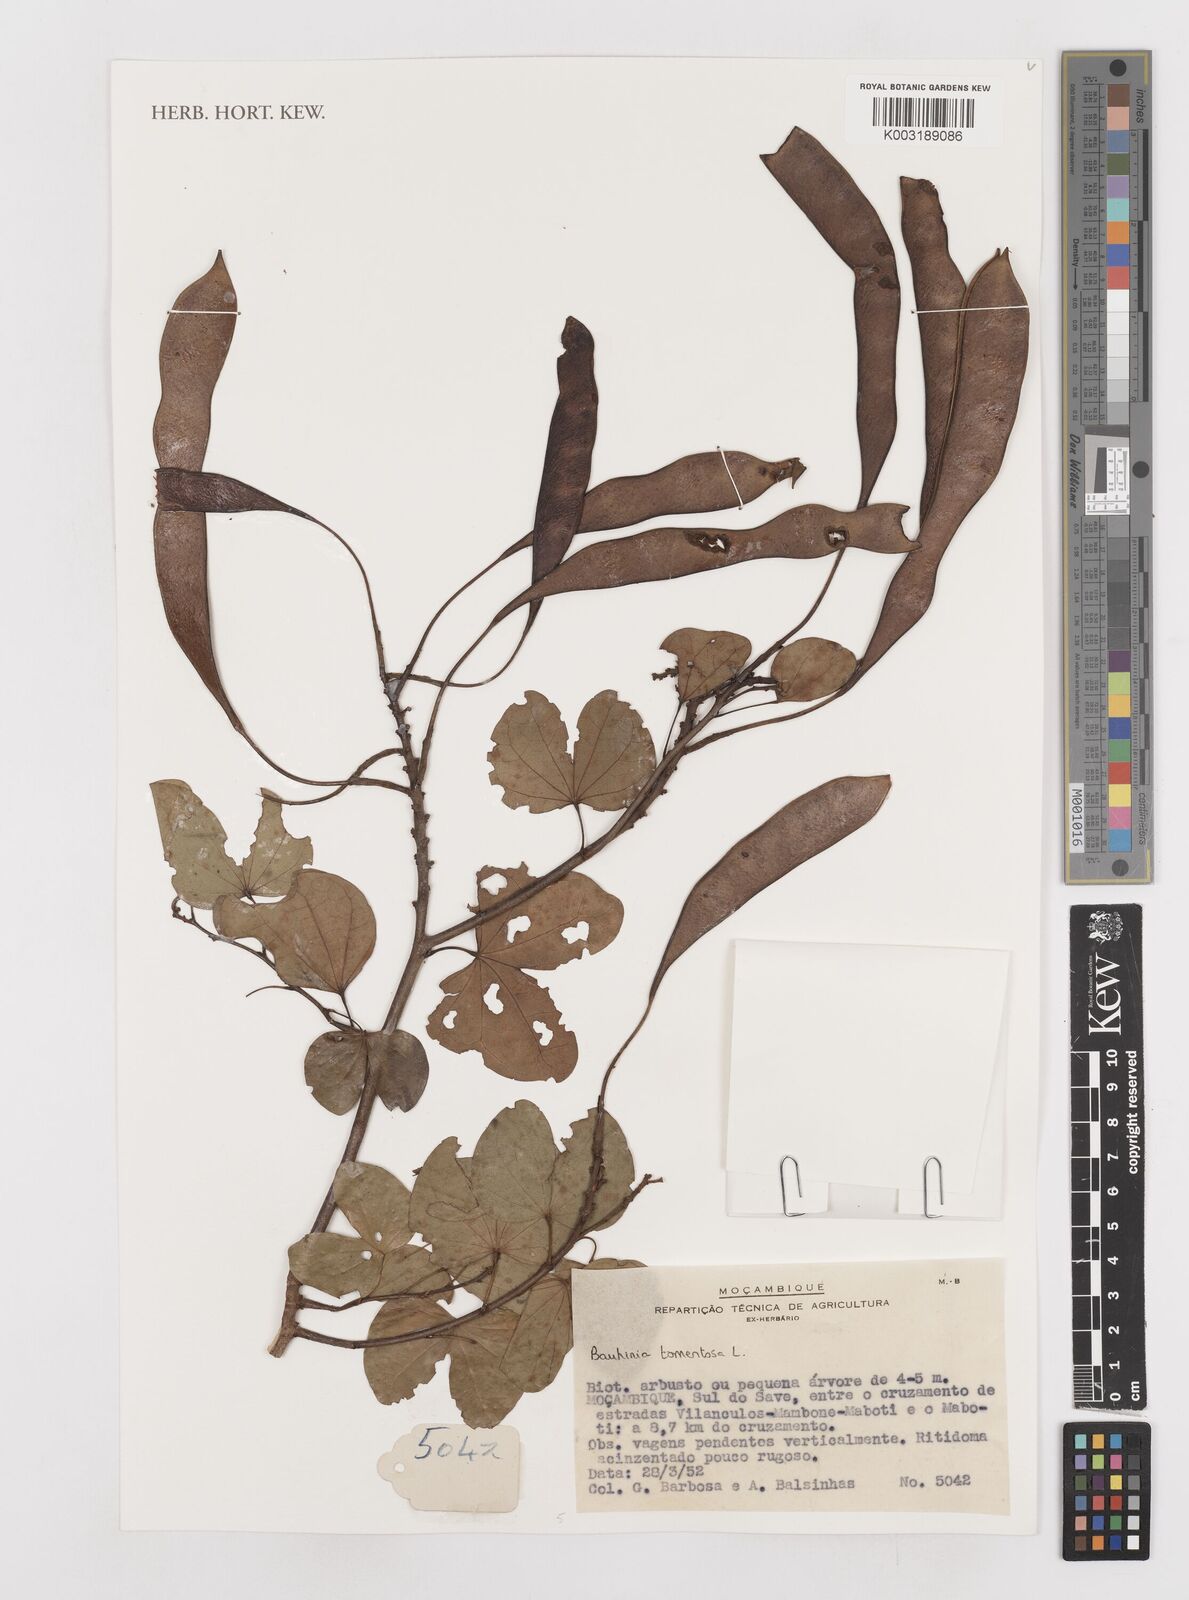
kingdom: Plantae
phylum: Tracheophyta
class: Magnoliopsida
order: Fabales
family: Fabaceae
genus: Bauhinia
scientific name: Bauhinia tomentosa
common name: Bell bauhinia
